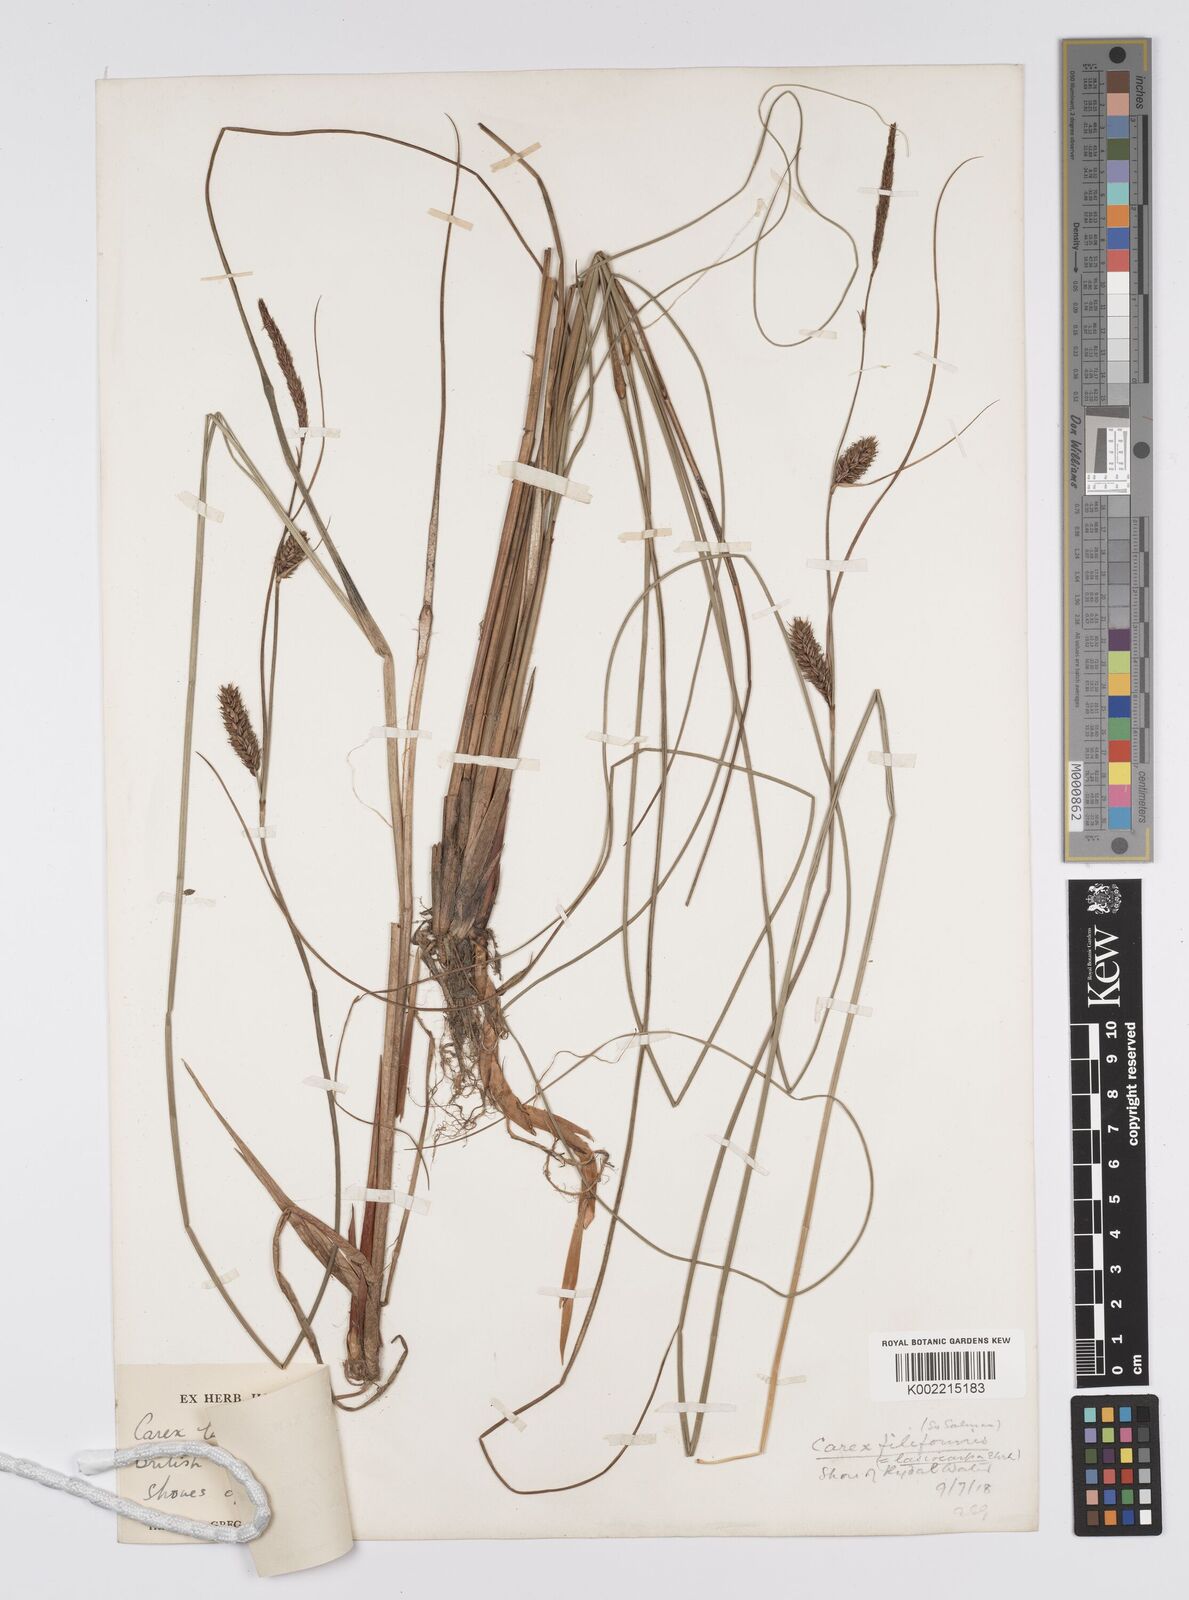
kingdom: Plantae
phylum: Tracheophyta
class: Liliopsida
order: Poales
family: Cyperaceae
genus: Carex
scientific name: Carex lasiocarpa
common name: Slender sedge
